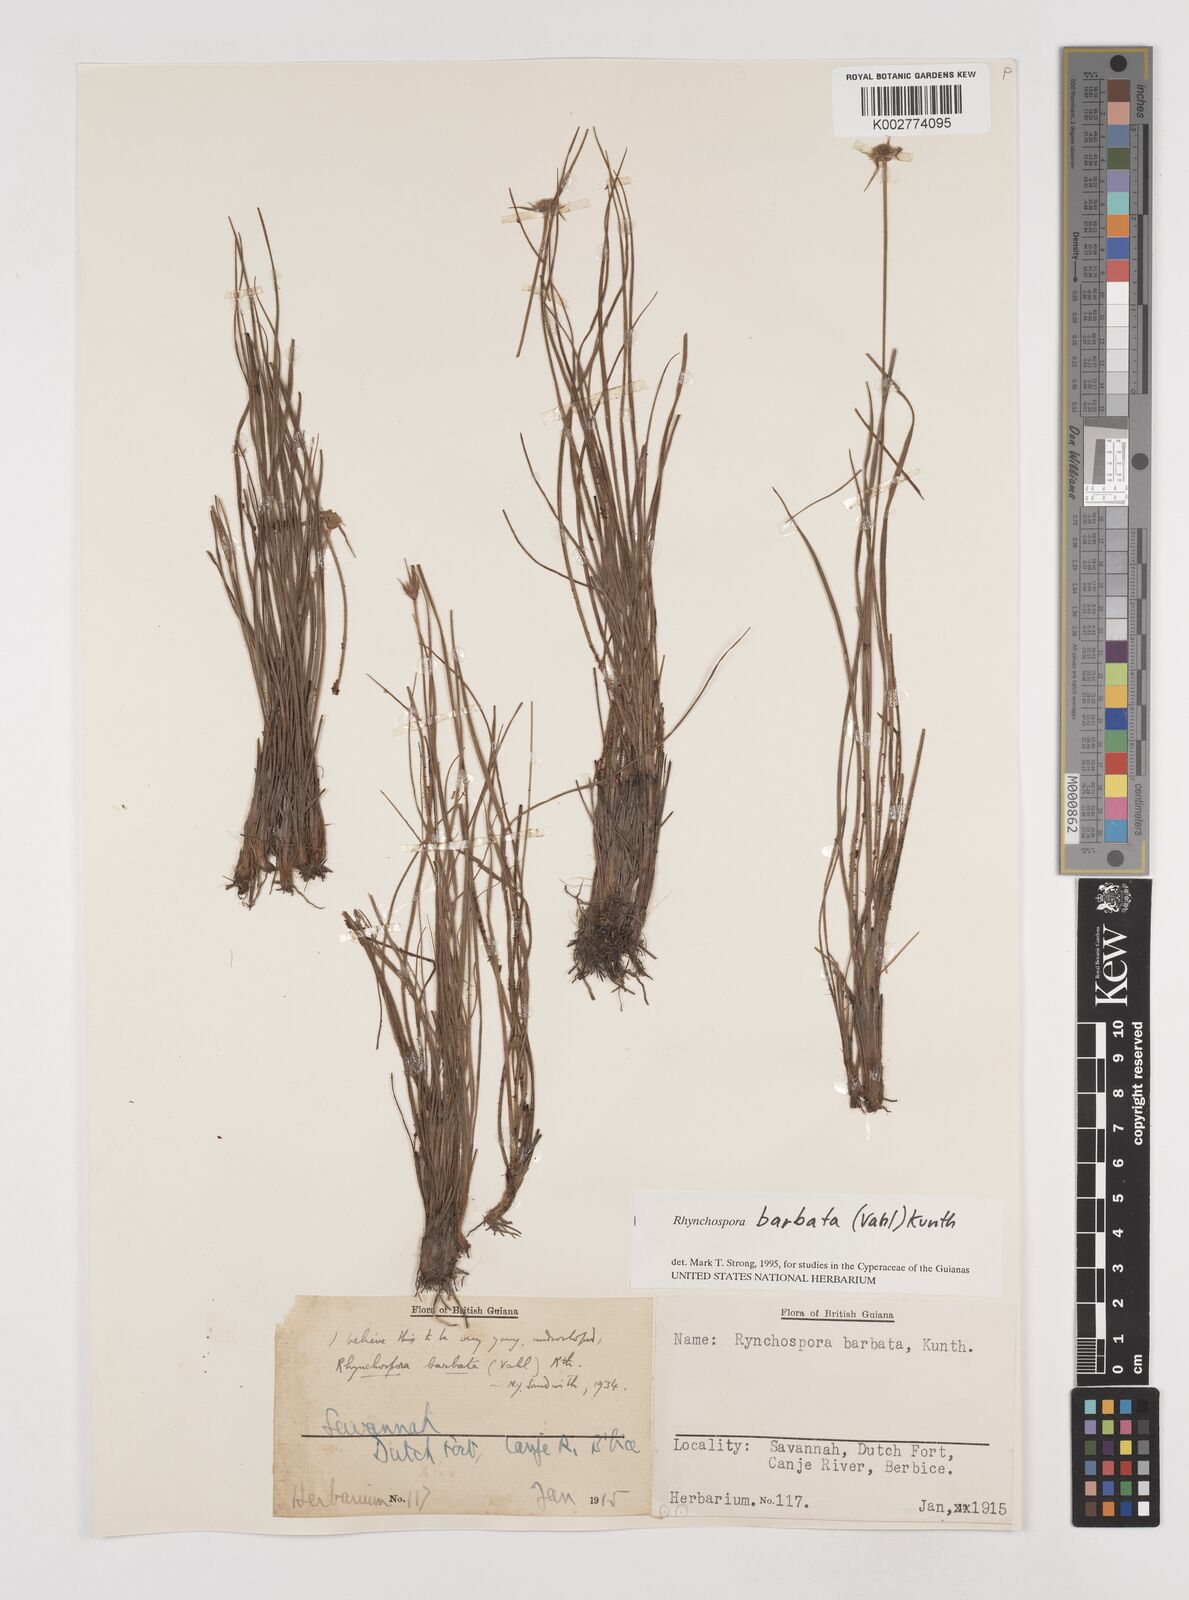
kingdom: Plantae
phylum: Tracheophyta
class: Liliopsida
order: Poales
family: Cyperaceae
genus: Rhynchospora
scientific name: Rhynchospora barbata
